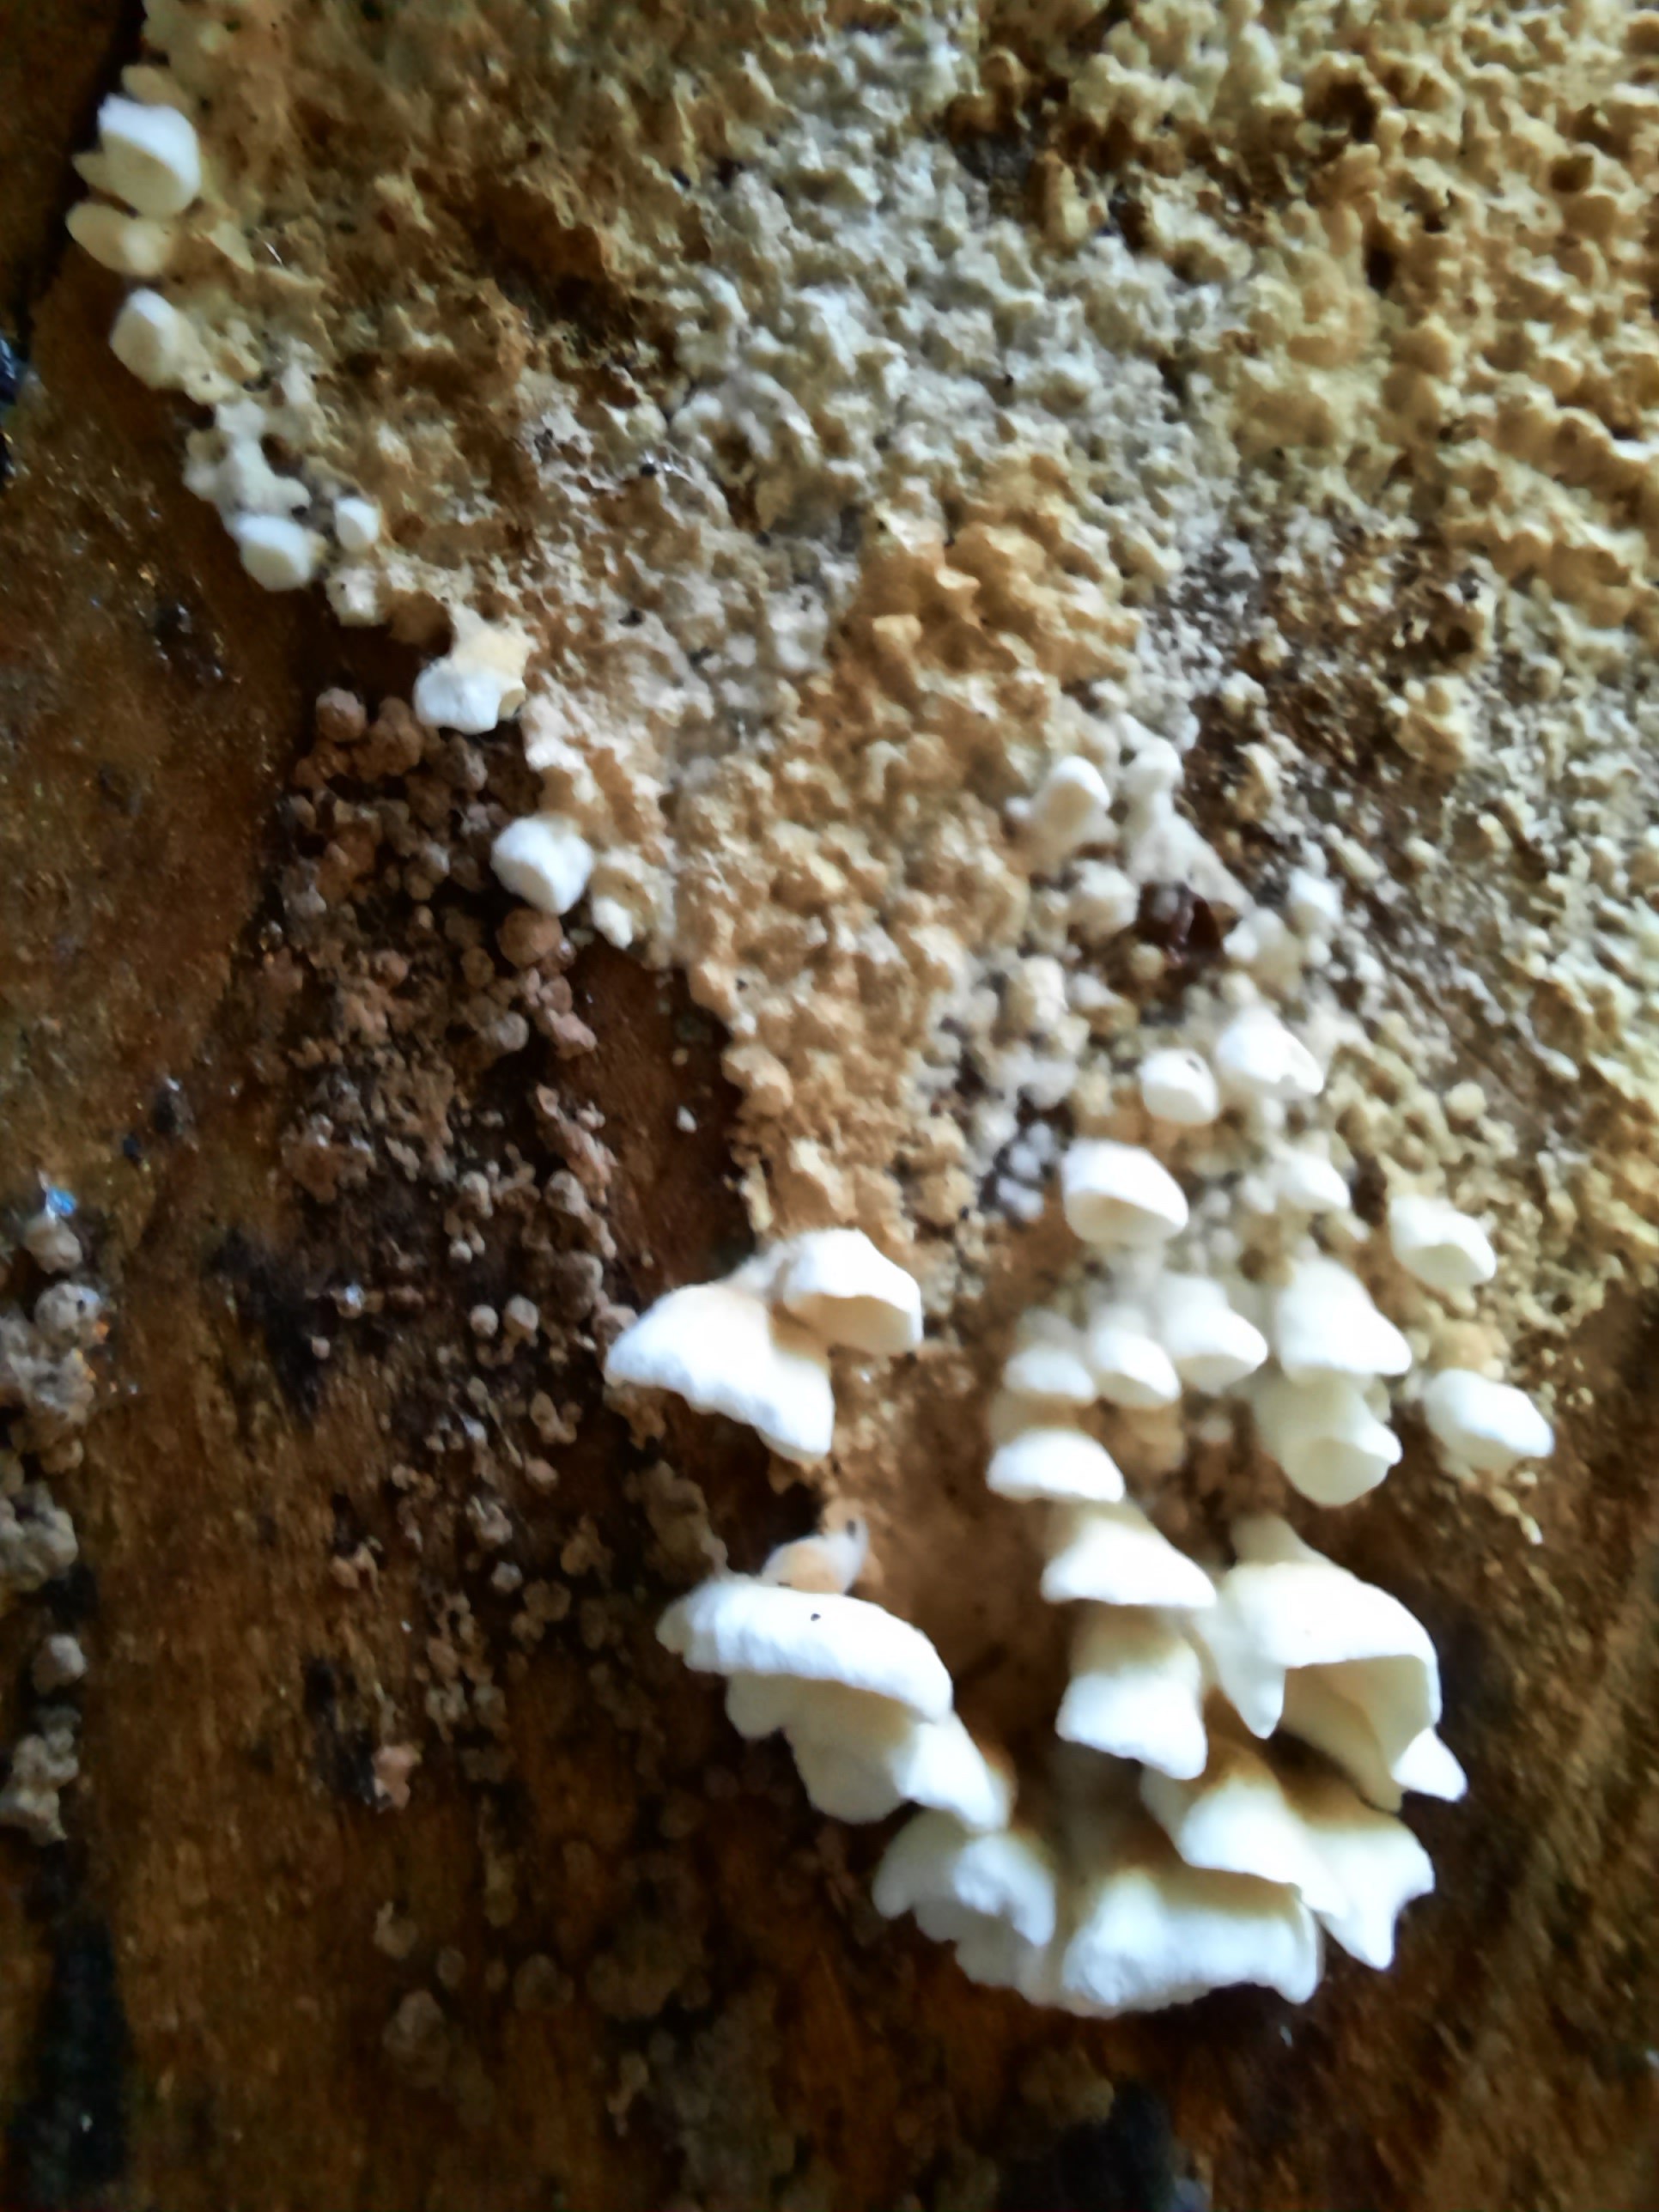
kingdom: Fungi
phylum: Basidiomycota
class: Agaricomycetes
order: Amylocorticiales
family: Amylocorticiaceae
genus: Plicaturopsis
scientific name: Plicaturopsis crispa
